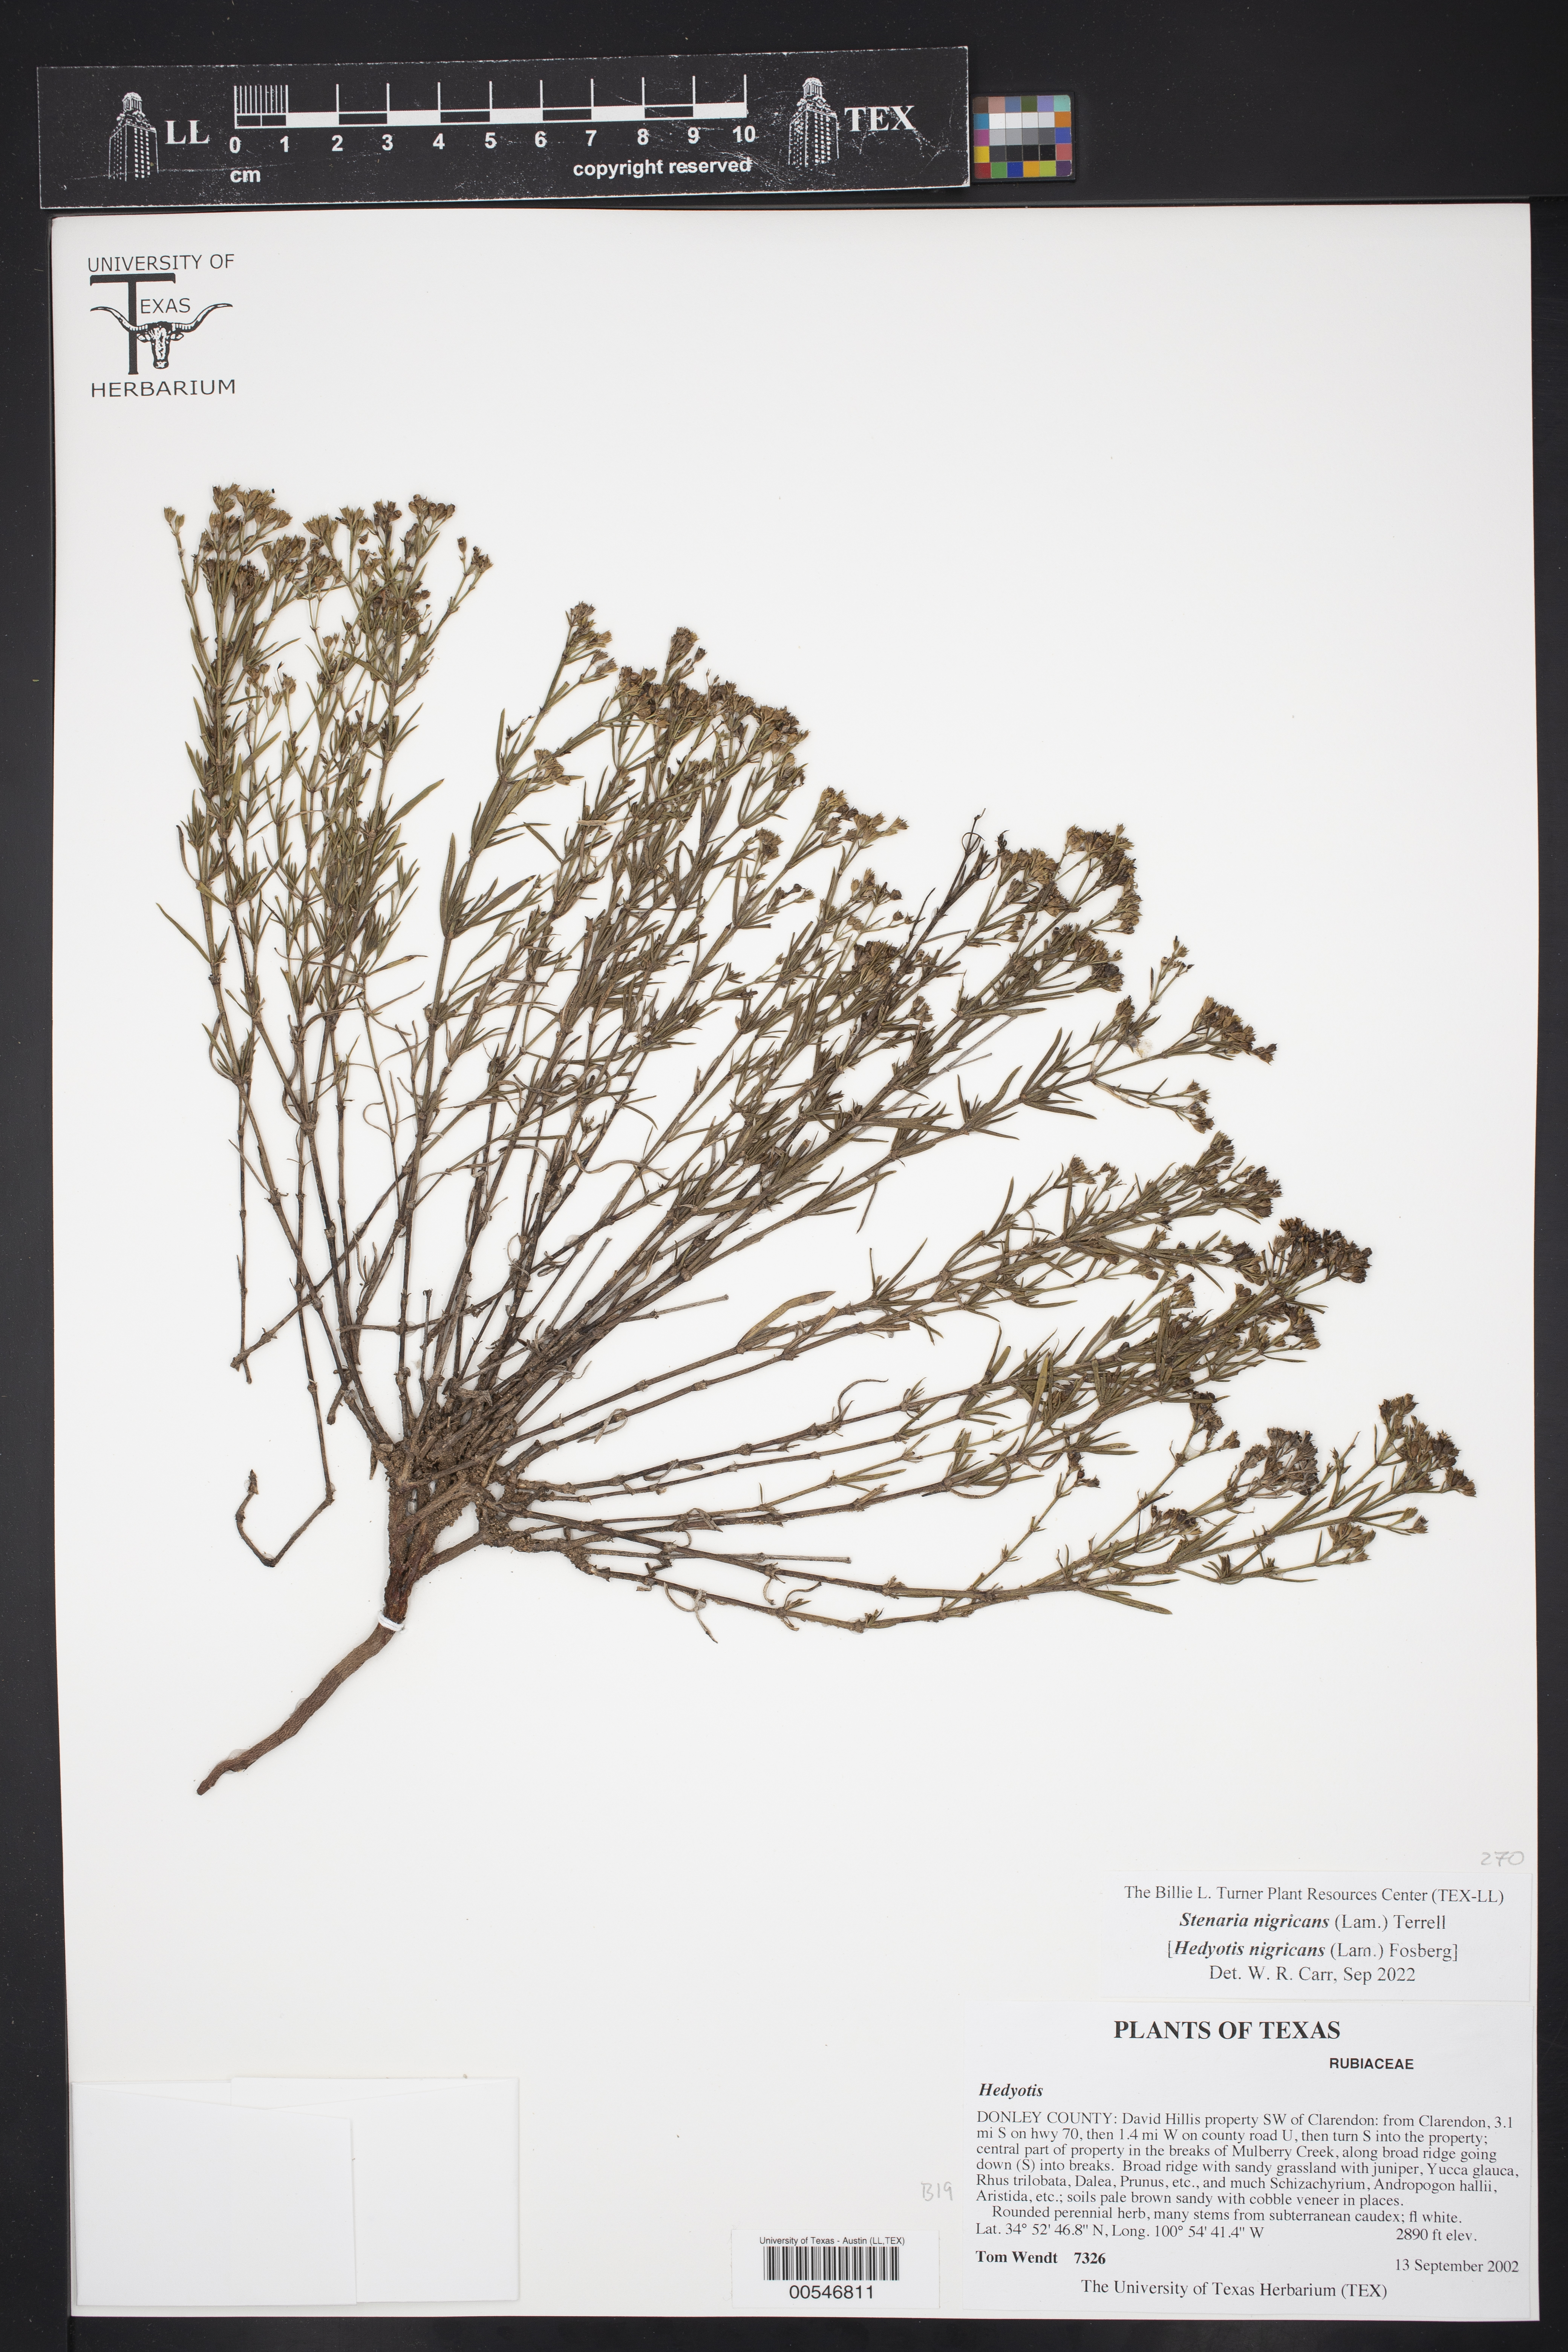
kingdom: Plantae
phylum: Tracheophyta
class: Magnoliopsida
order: Gentianales
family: Rubiaceae
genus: Stenaria
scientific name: Stenaria nigricans
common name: Diamondflowers
